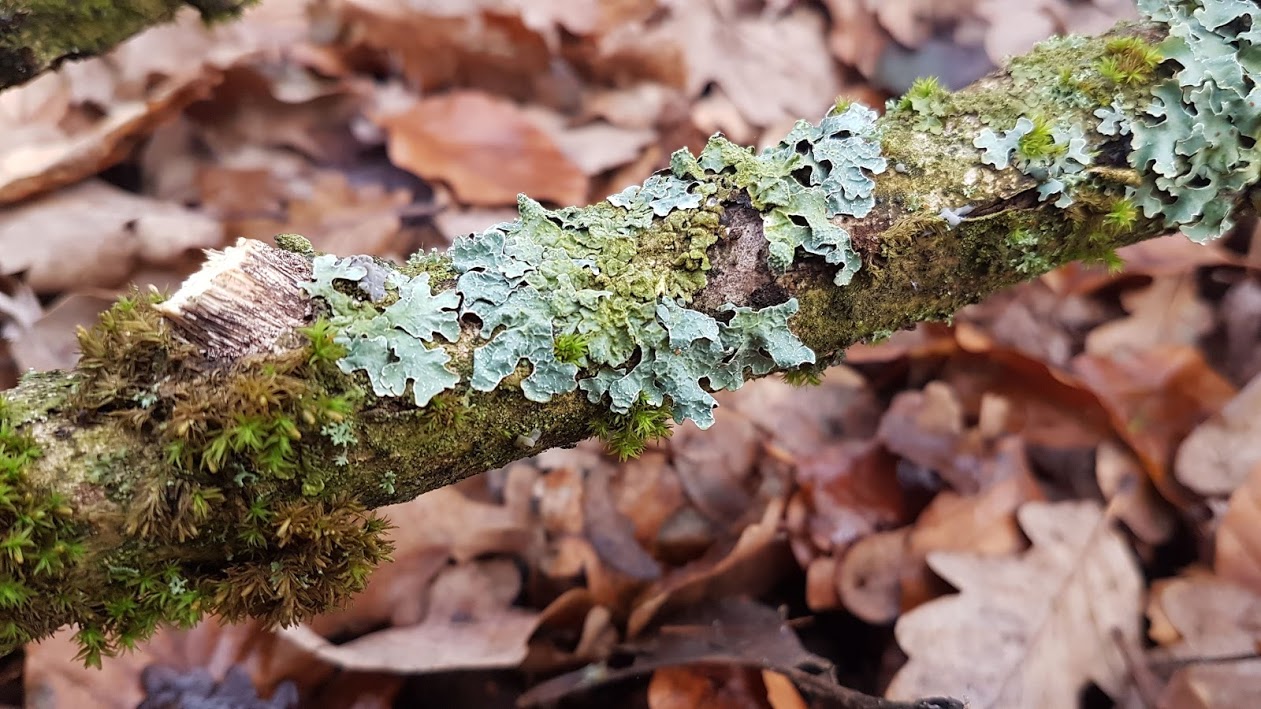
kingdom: Fungi
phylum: Ascomycota
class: Lecanoromycetes
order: Lecanorales
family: Parmeliaceae
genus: Parmelia
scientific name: Parmelia sulcata
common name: rynket skållav
